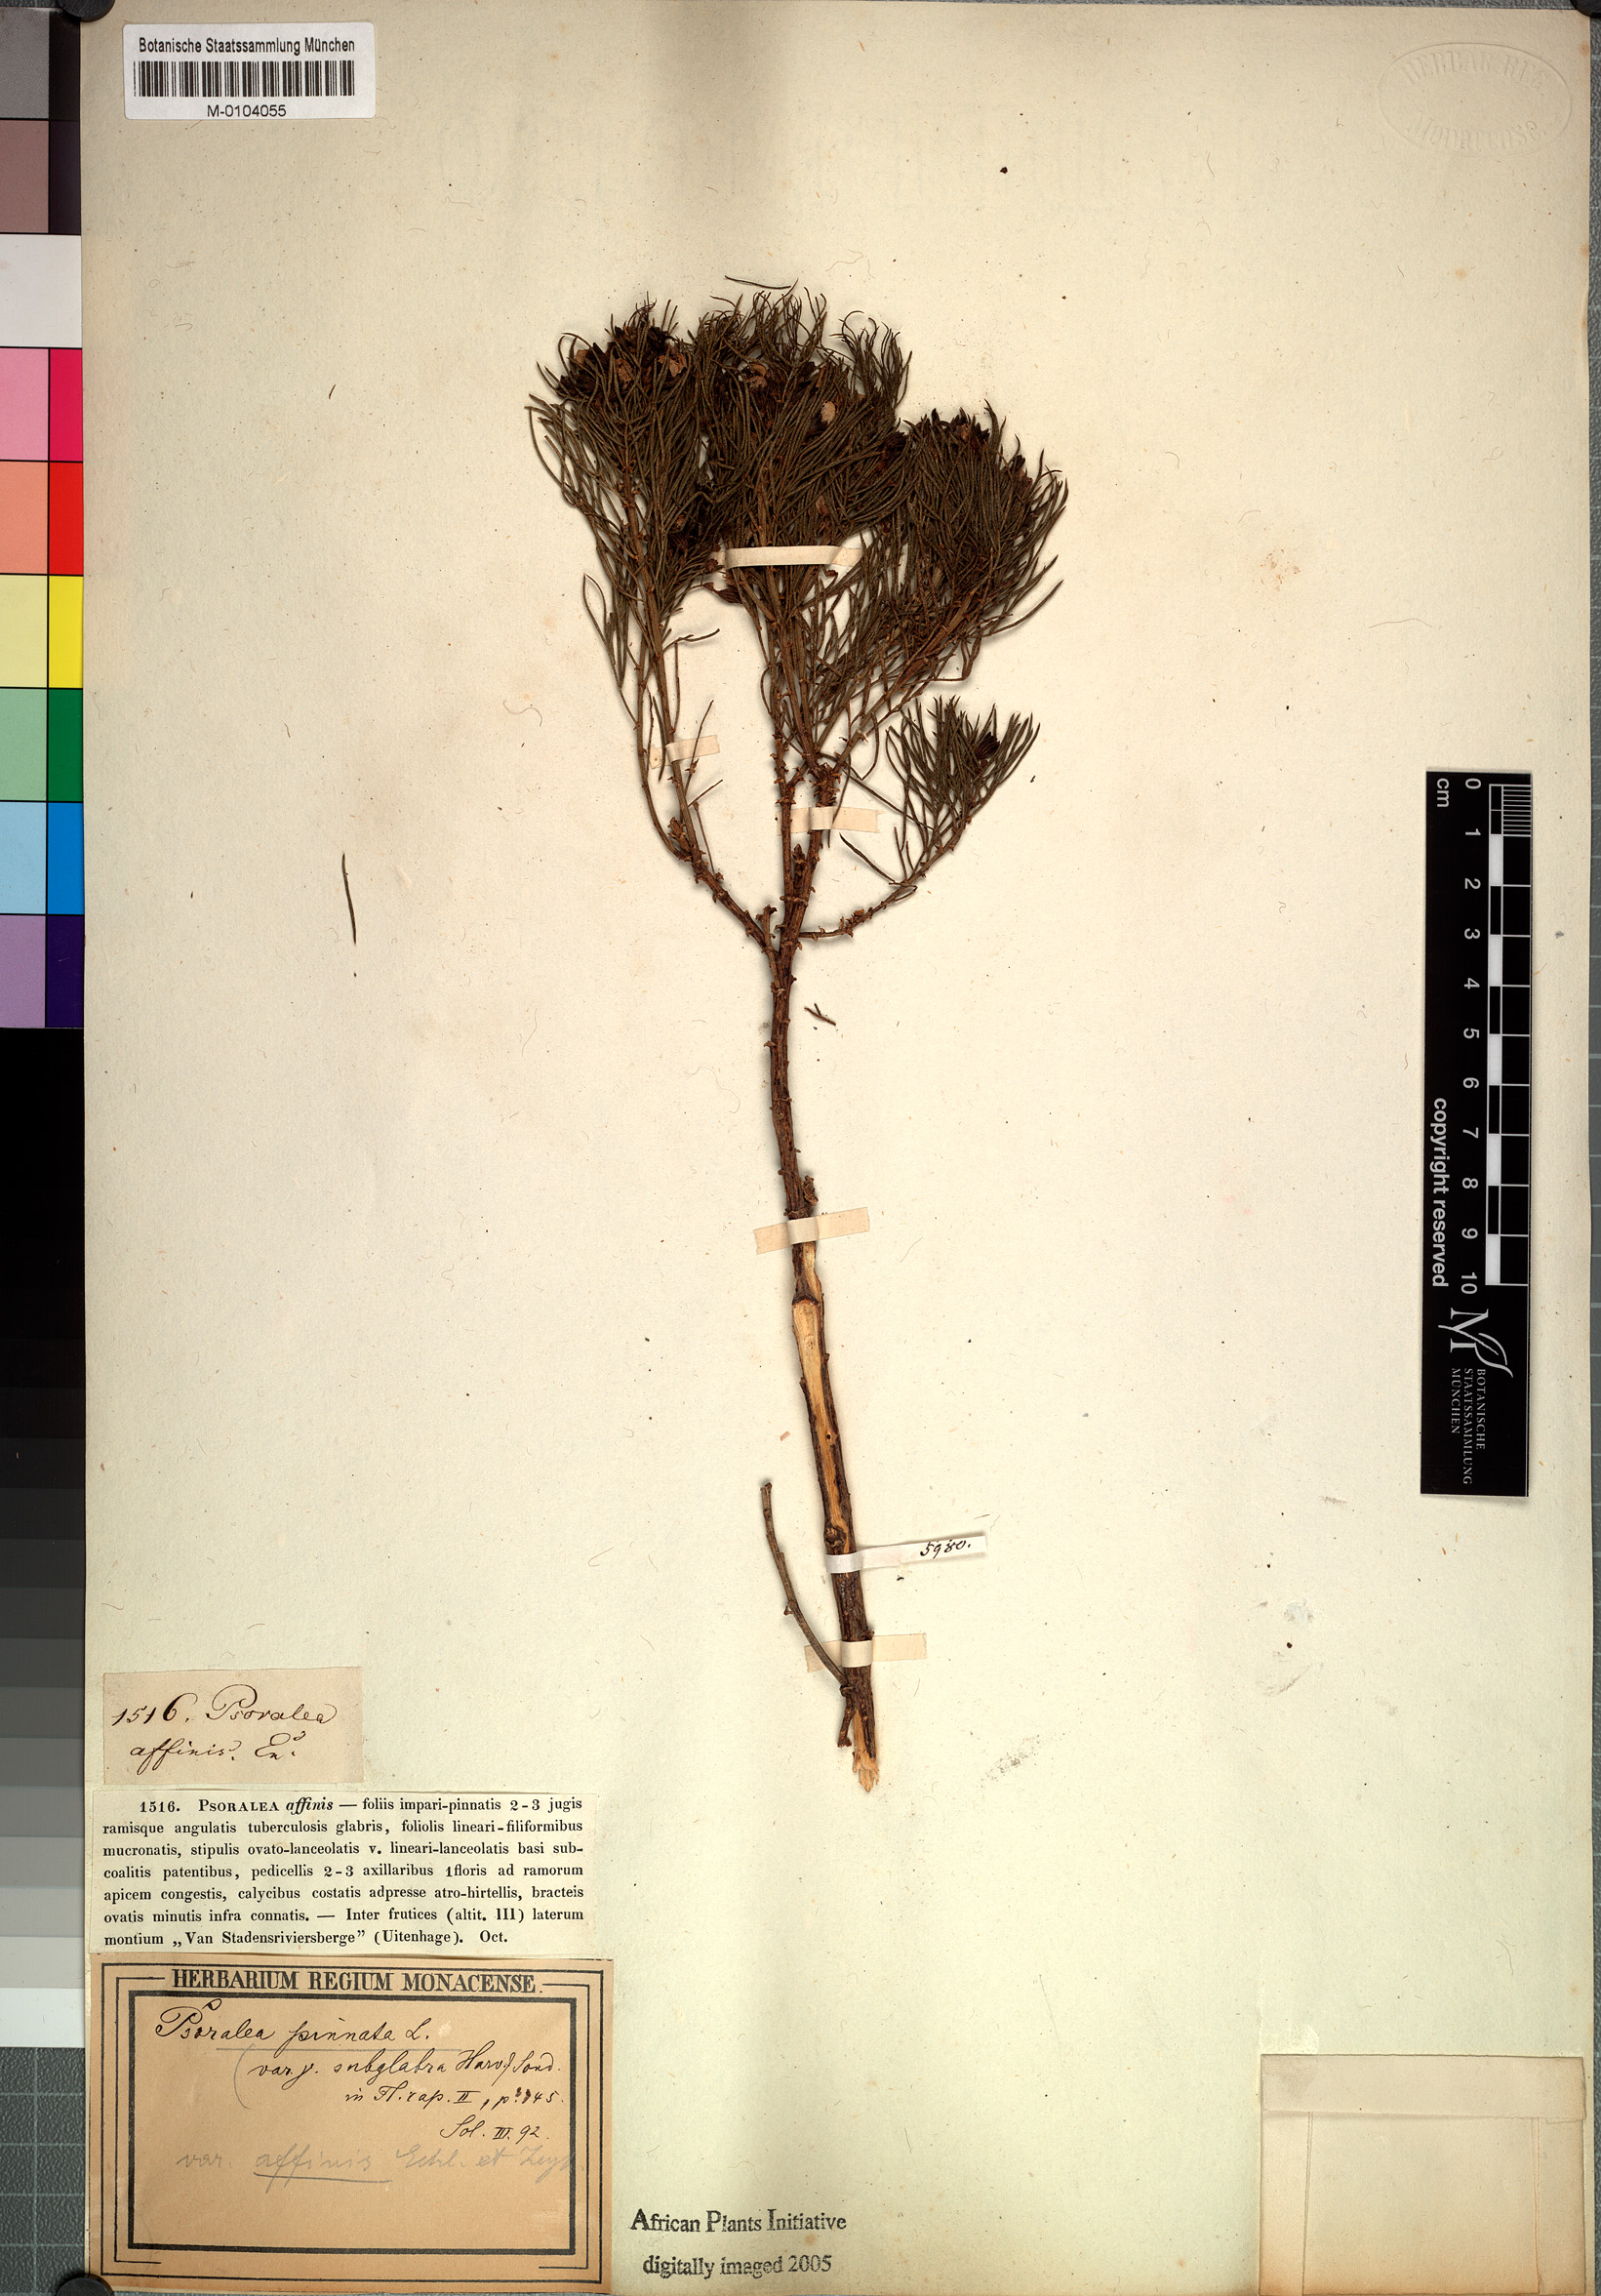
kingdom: Plantae
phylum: Tracheophyta
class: Magnoliopsida
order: Fabales
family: Fabaceae
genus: Psoralea
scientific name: Psoralea pinnata
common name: African scurfpea
